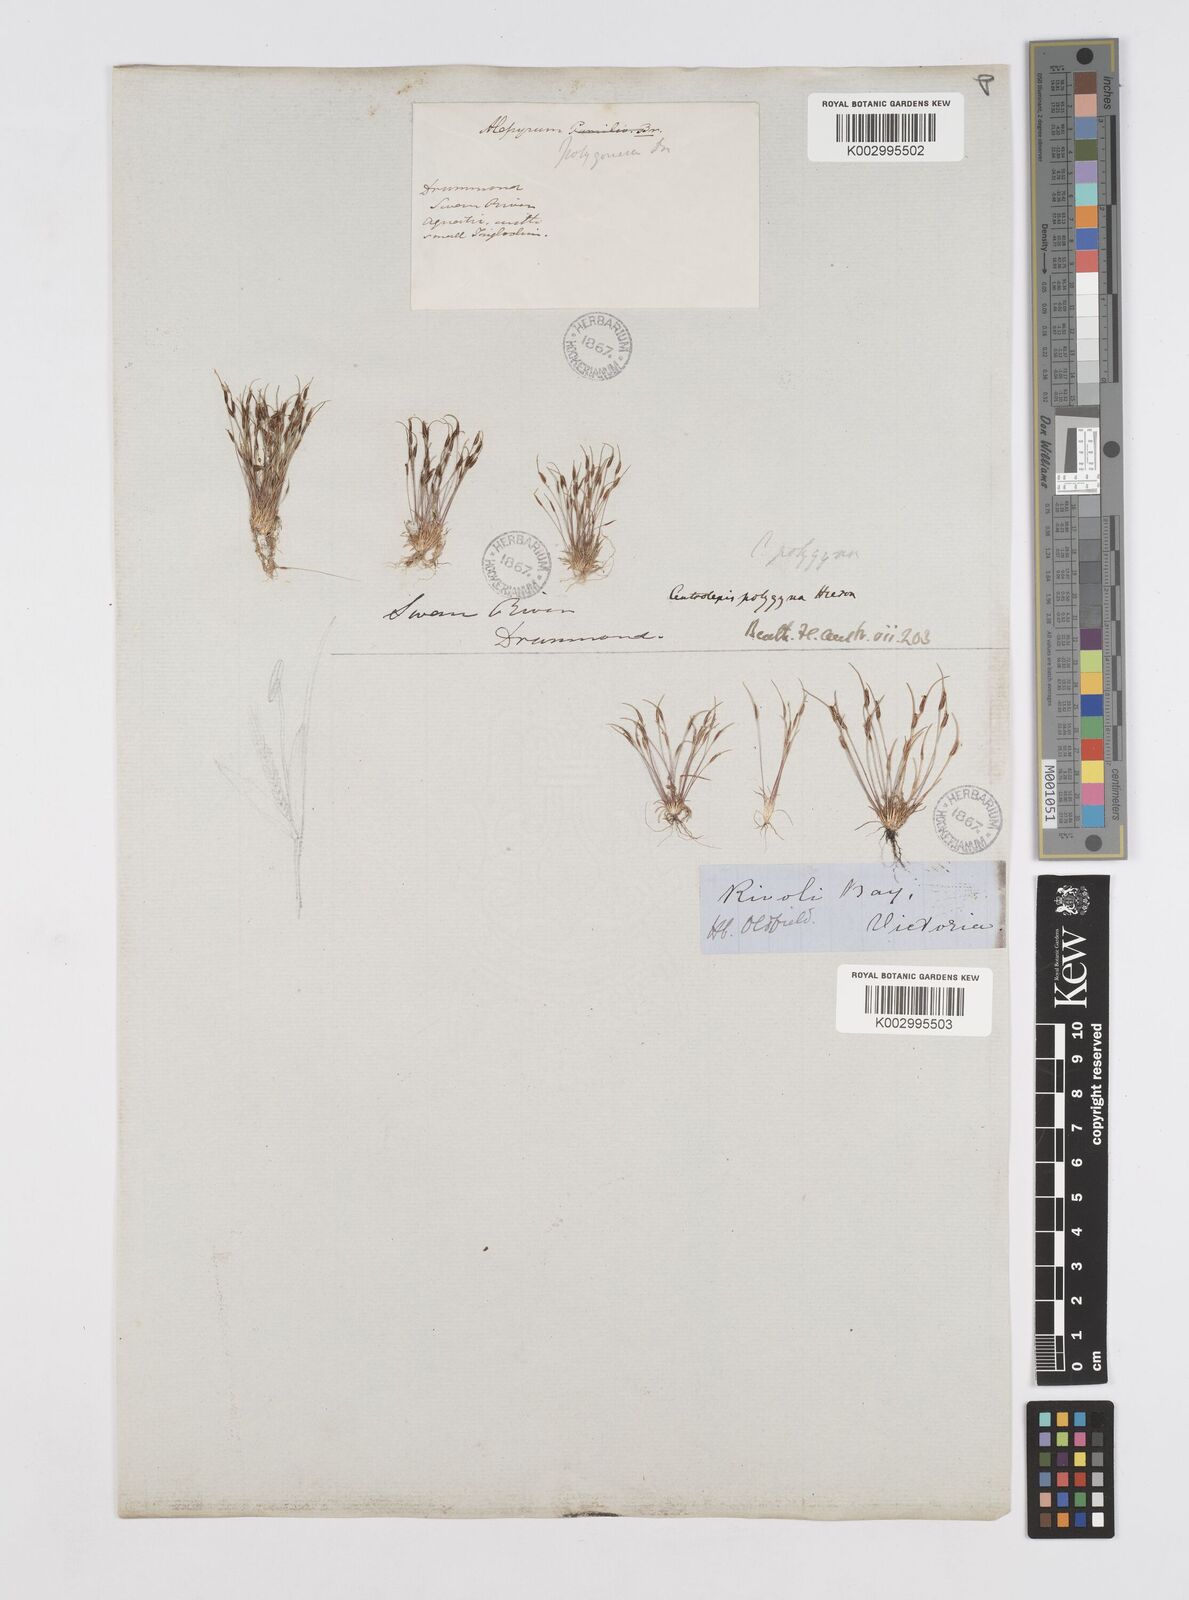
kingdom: Plantae
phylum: Tracheophyta
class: Liliopsida
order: Poales
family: Restionaceae
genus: Centrolepis
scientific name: Centrolepis polygyna
